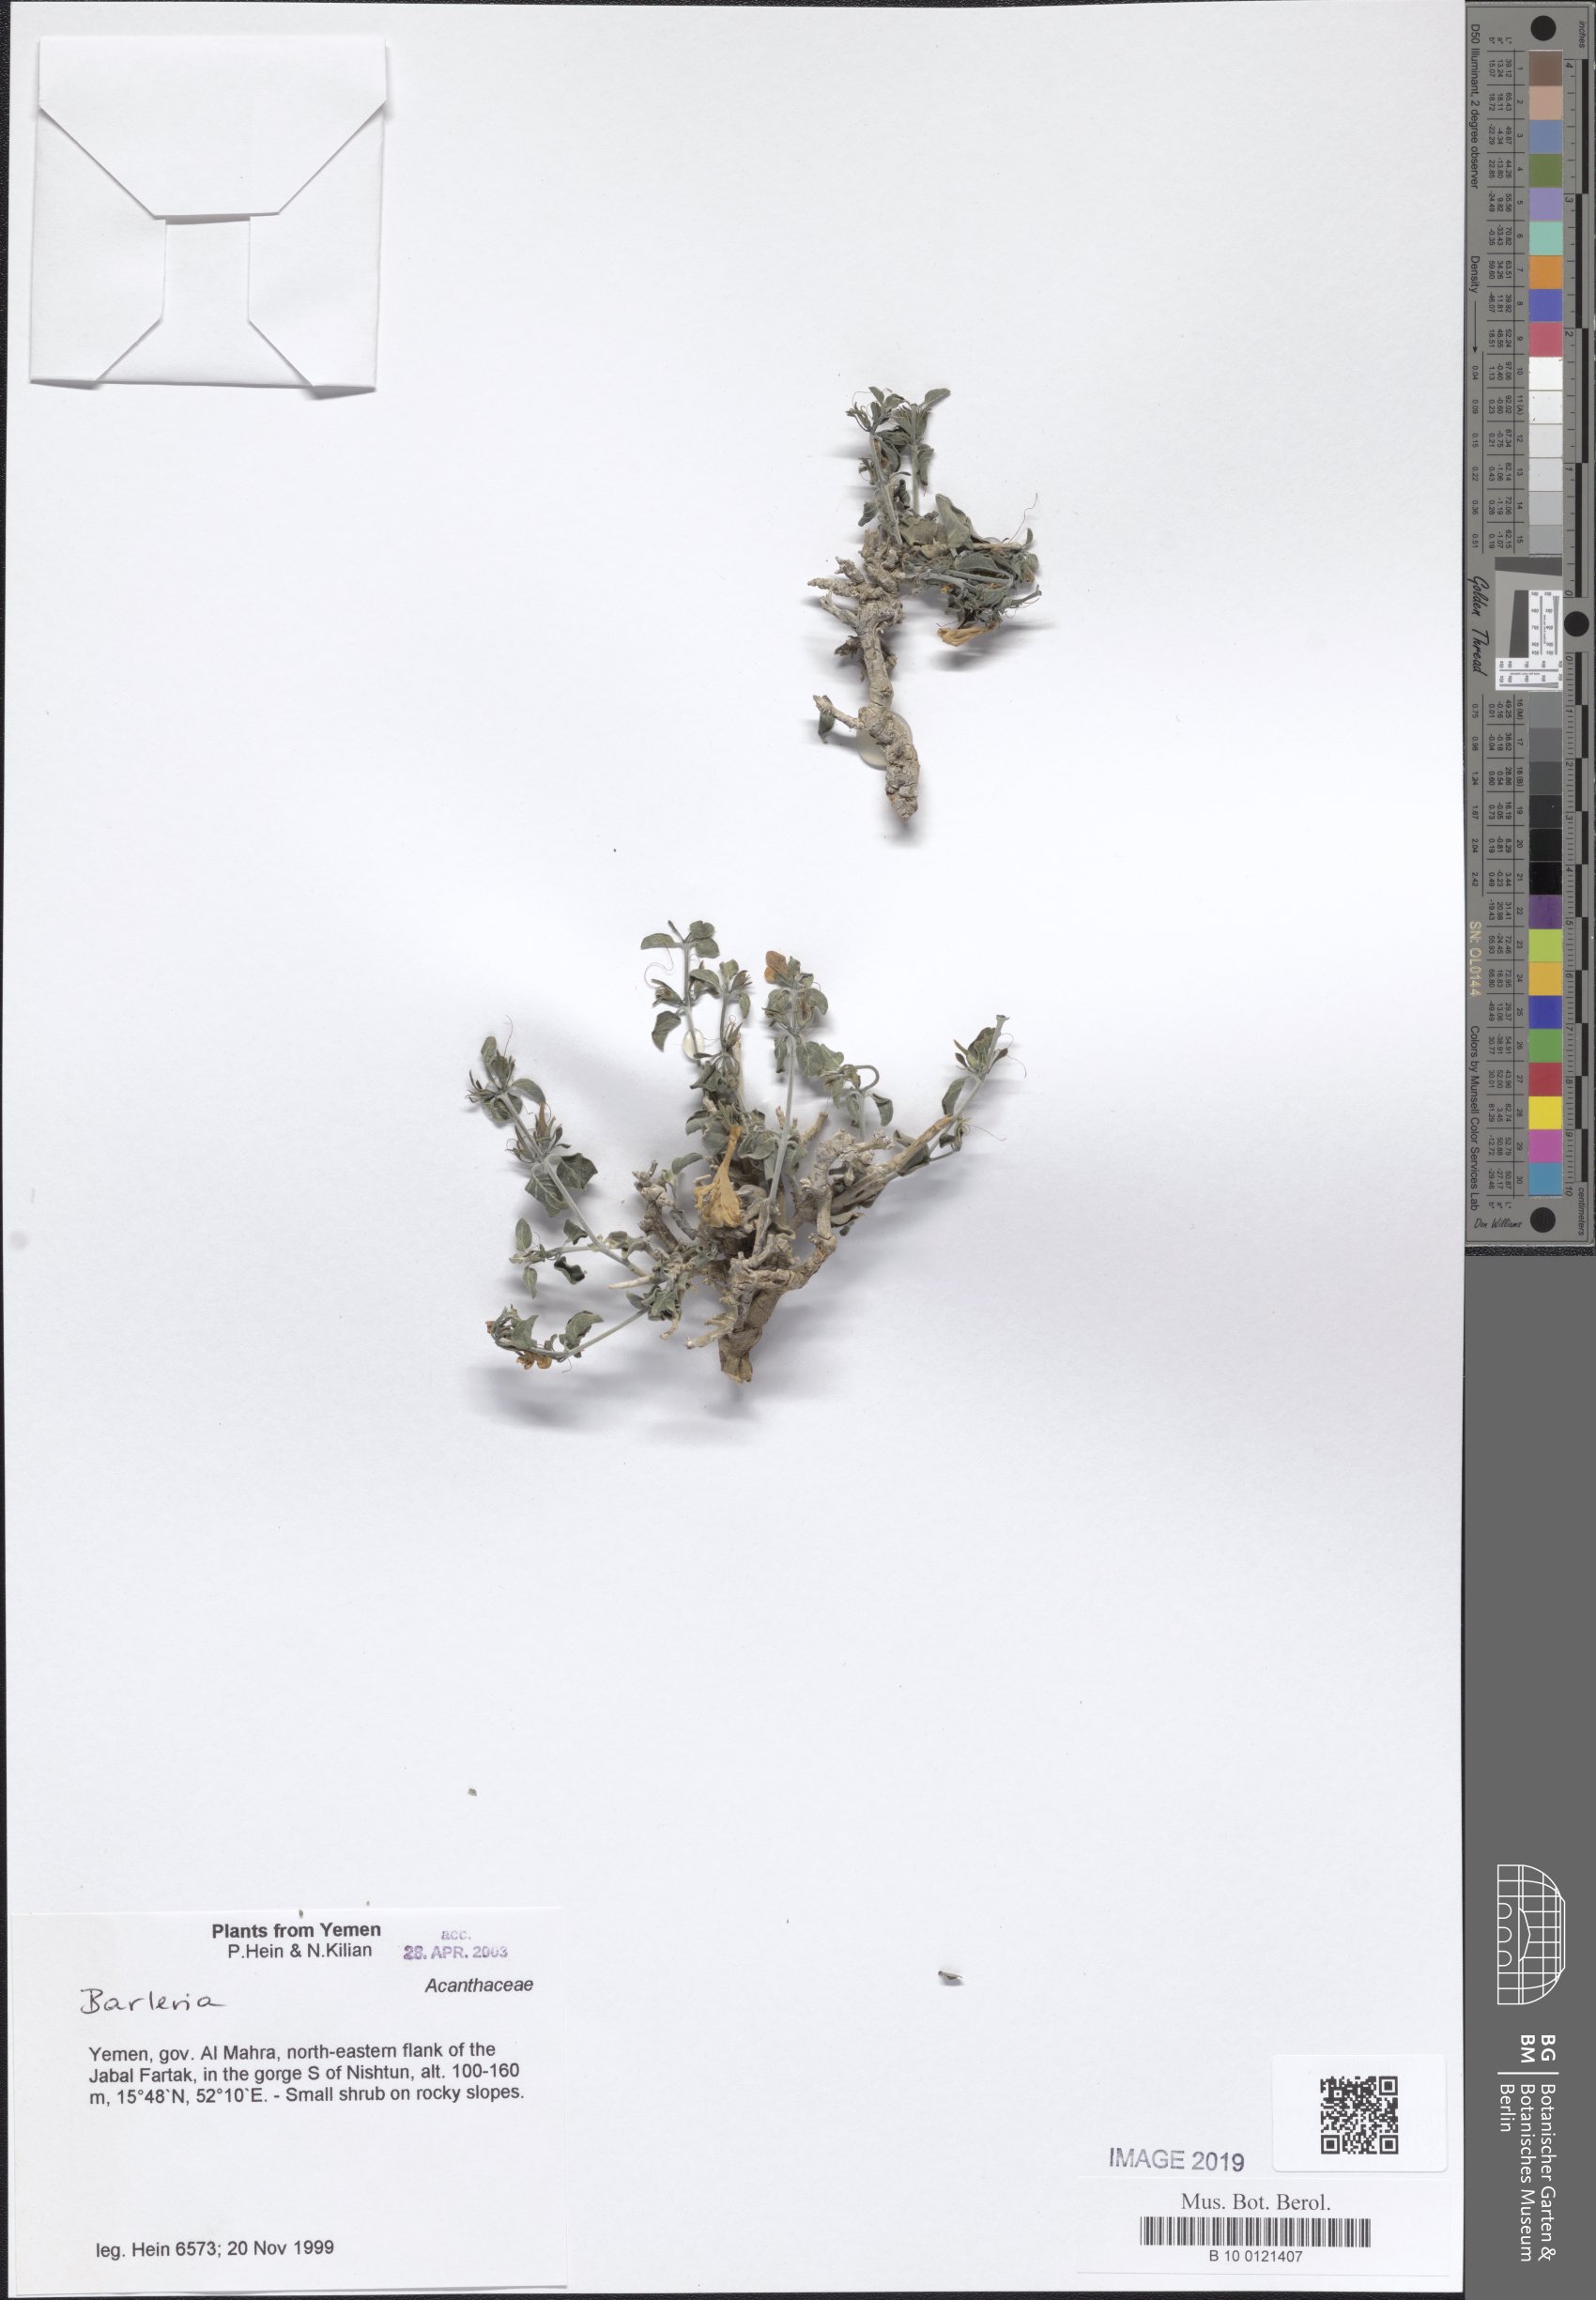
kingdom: Plantae
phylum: Tracheophyta
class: Magnoliopsida
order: Lamiales
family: Acanthaceae
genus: Barleria
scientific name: Barleria
